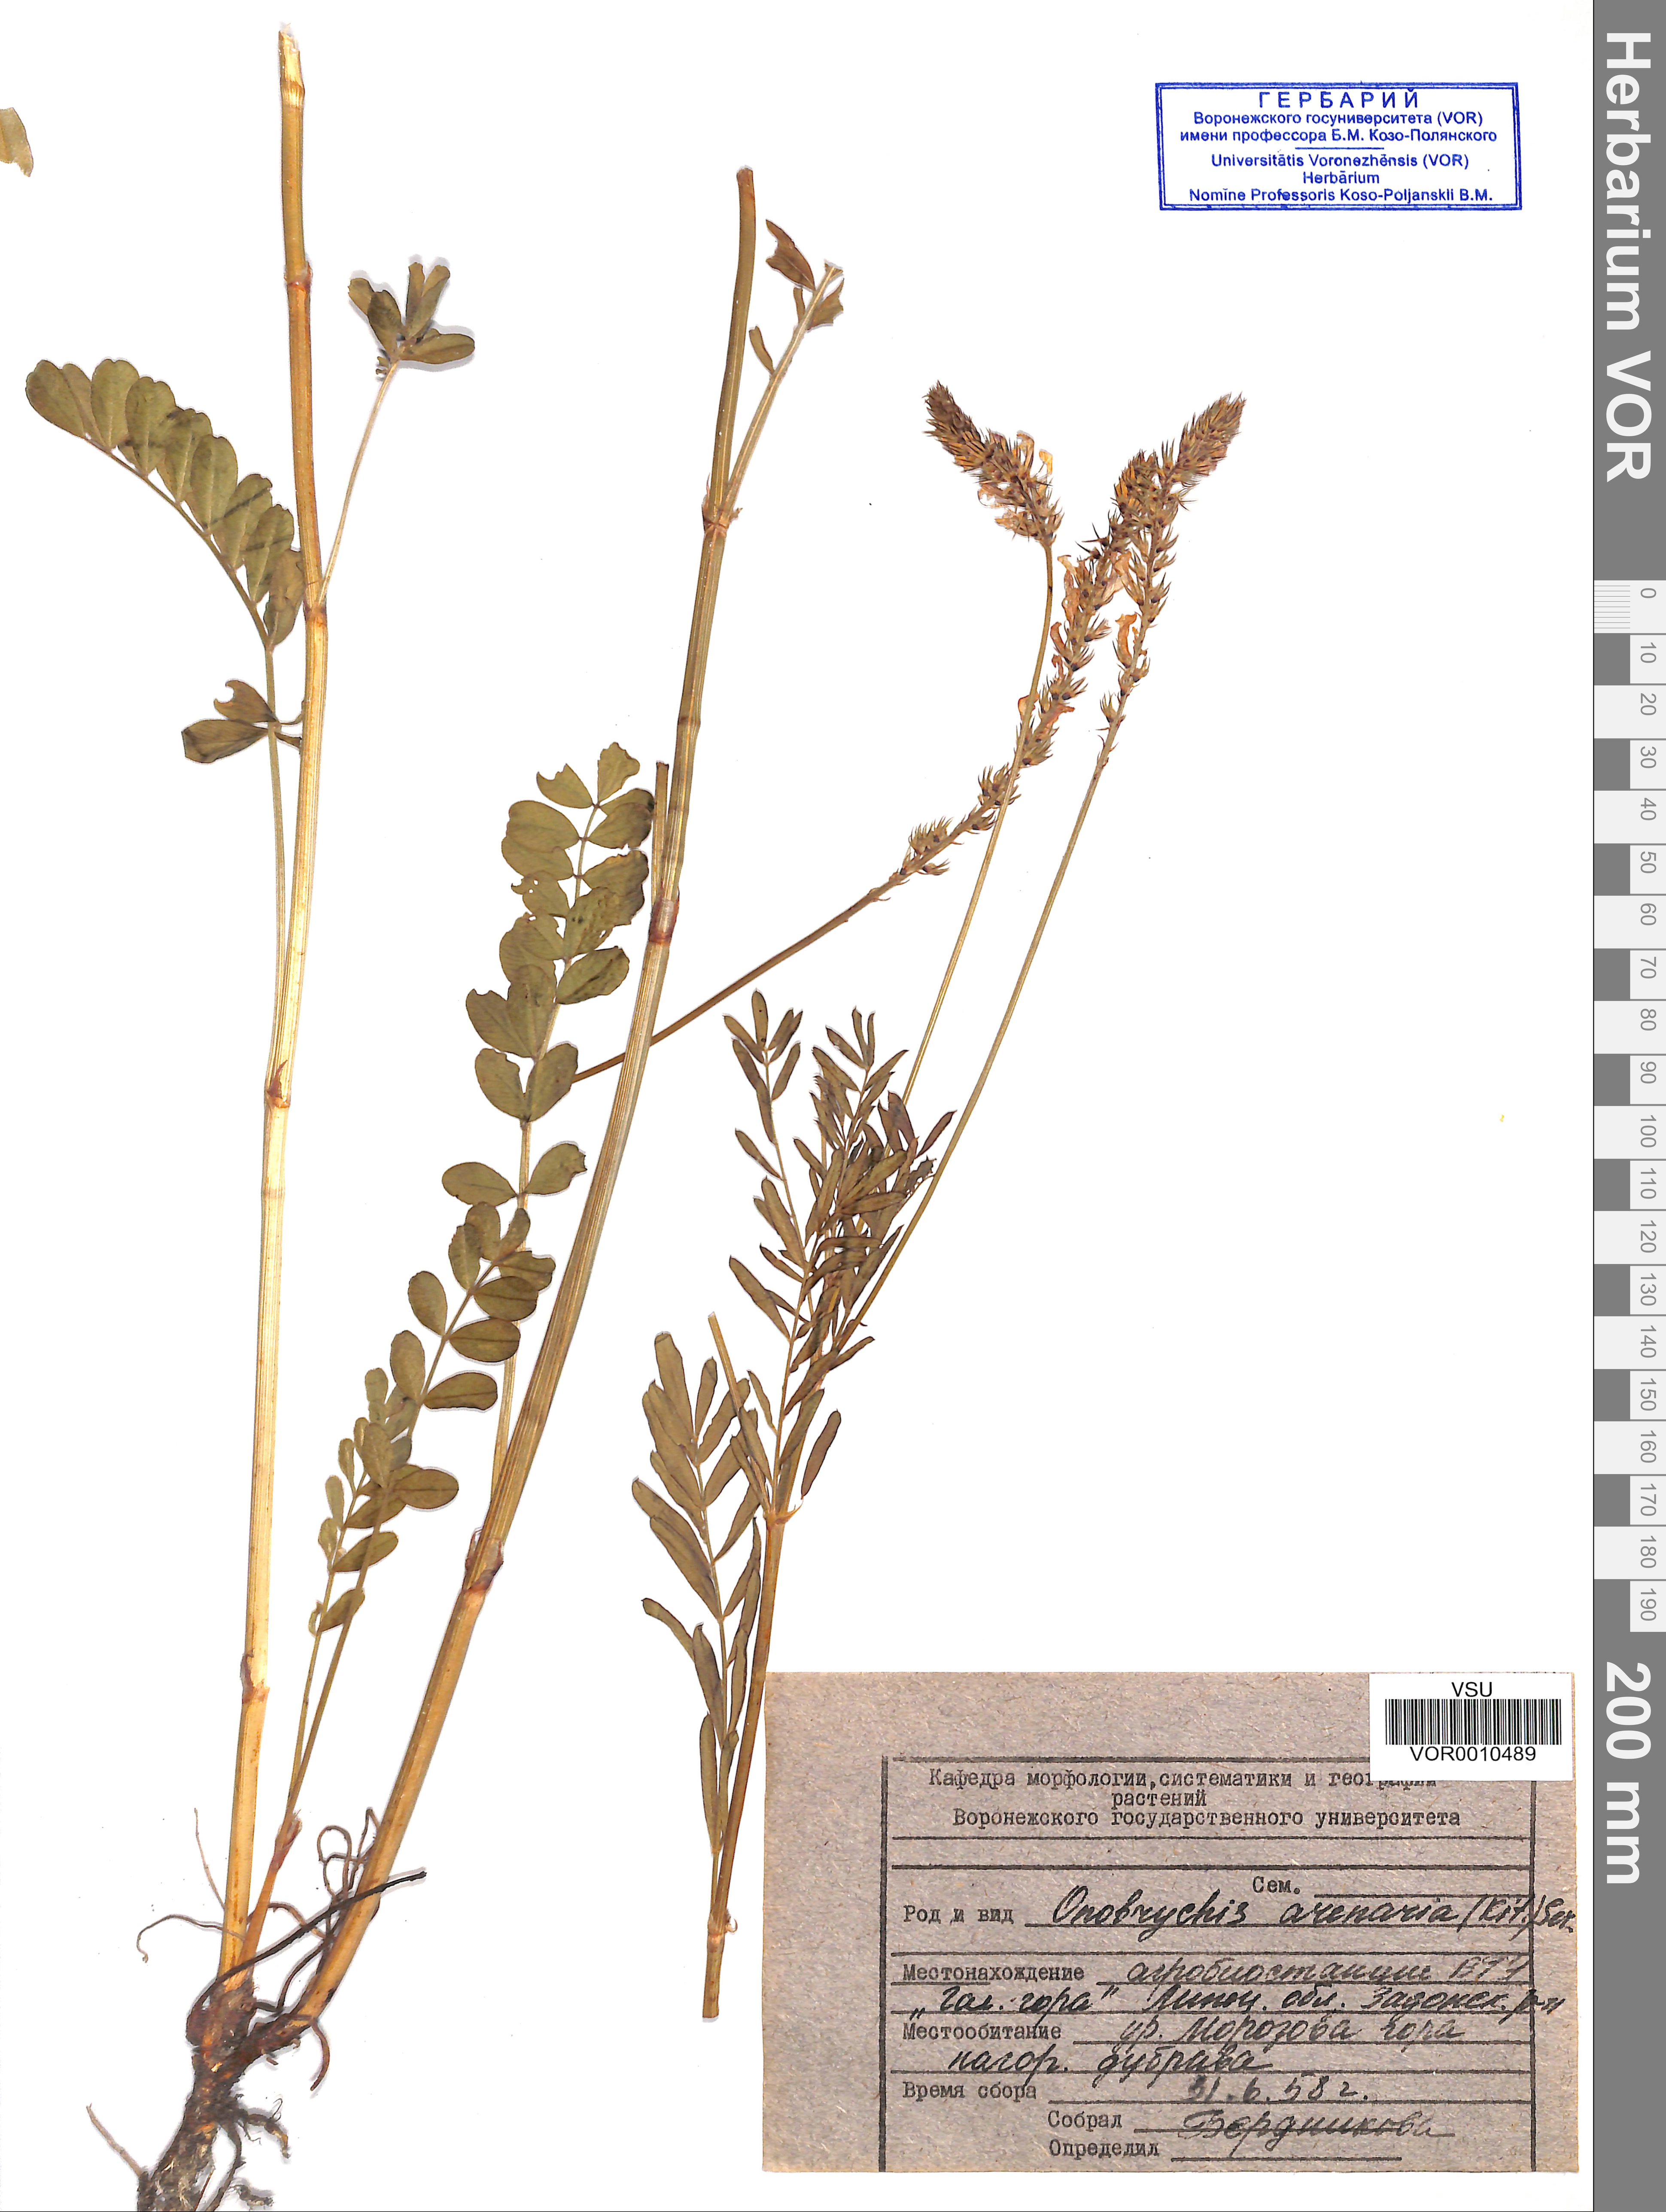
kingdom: Plantae
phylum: Tracheophyta
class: Magnoliopsida
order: Fabales
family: Fabaceae
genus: Onobrychis
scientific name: Onobrychis arenaria
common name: Sand esparcet
